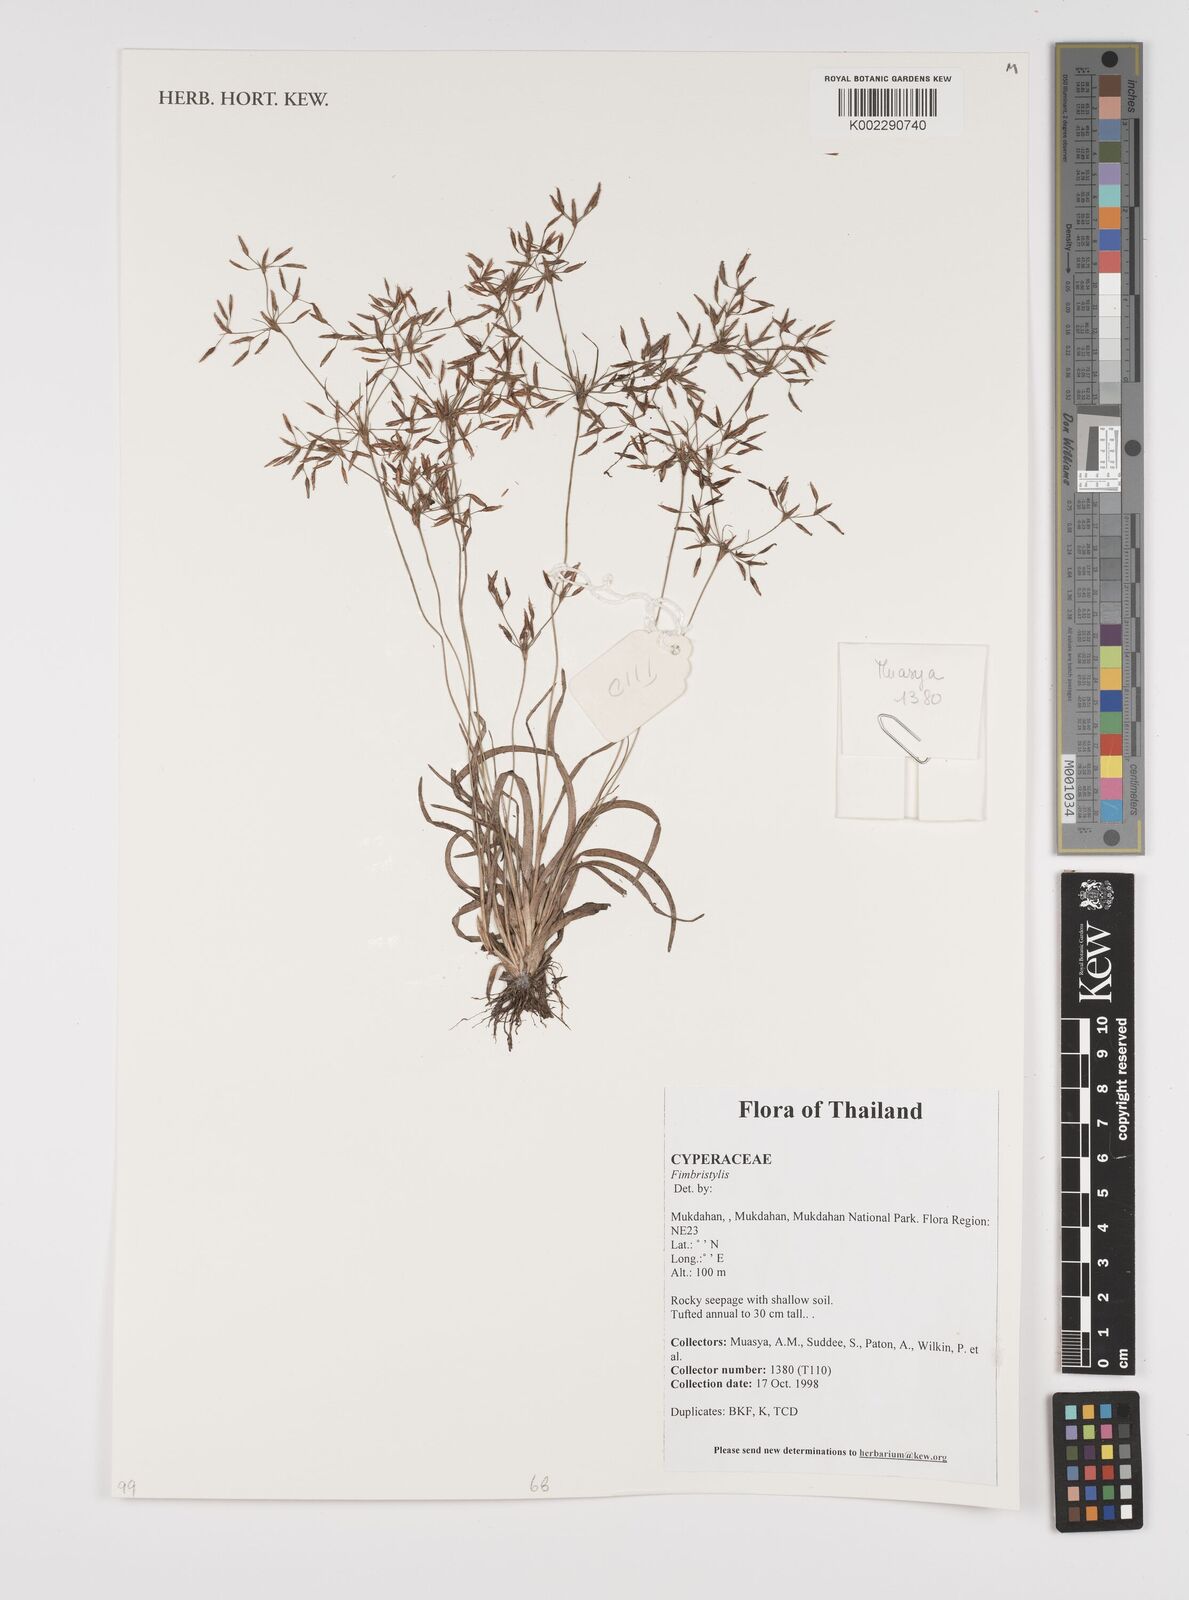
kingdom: Plantae
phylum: Tracheophyta
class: Liliopsida
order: Poales
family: Cyperaceae
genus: Fimbristylis
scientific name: Fimbristylis
